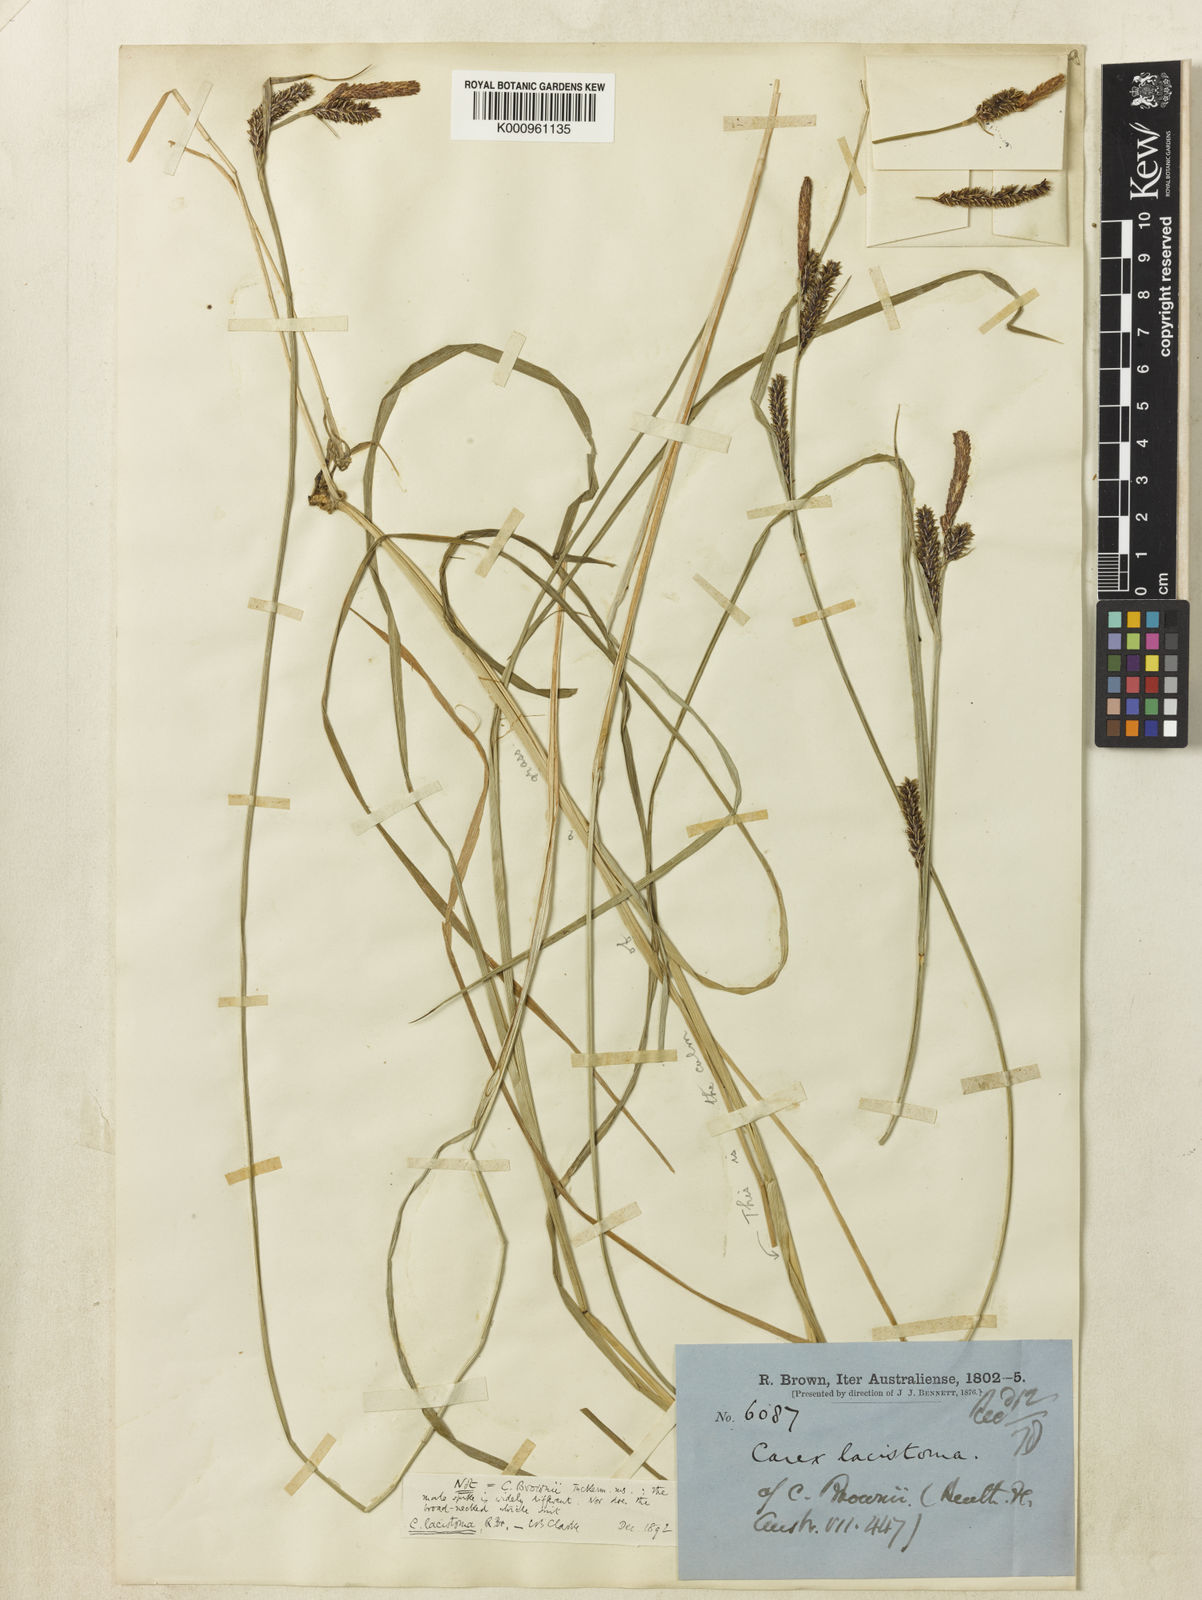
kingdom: Plantae
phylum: Tracheophyta
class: Liliopsida
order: Poales
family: Cyperaceae
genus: Carex
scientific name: Carex lacistoma
